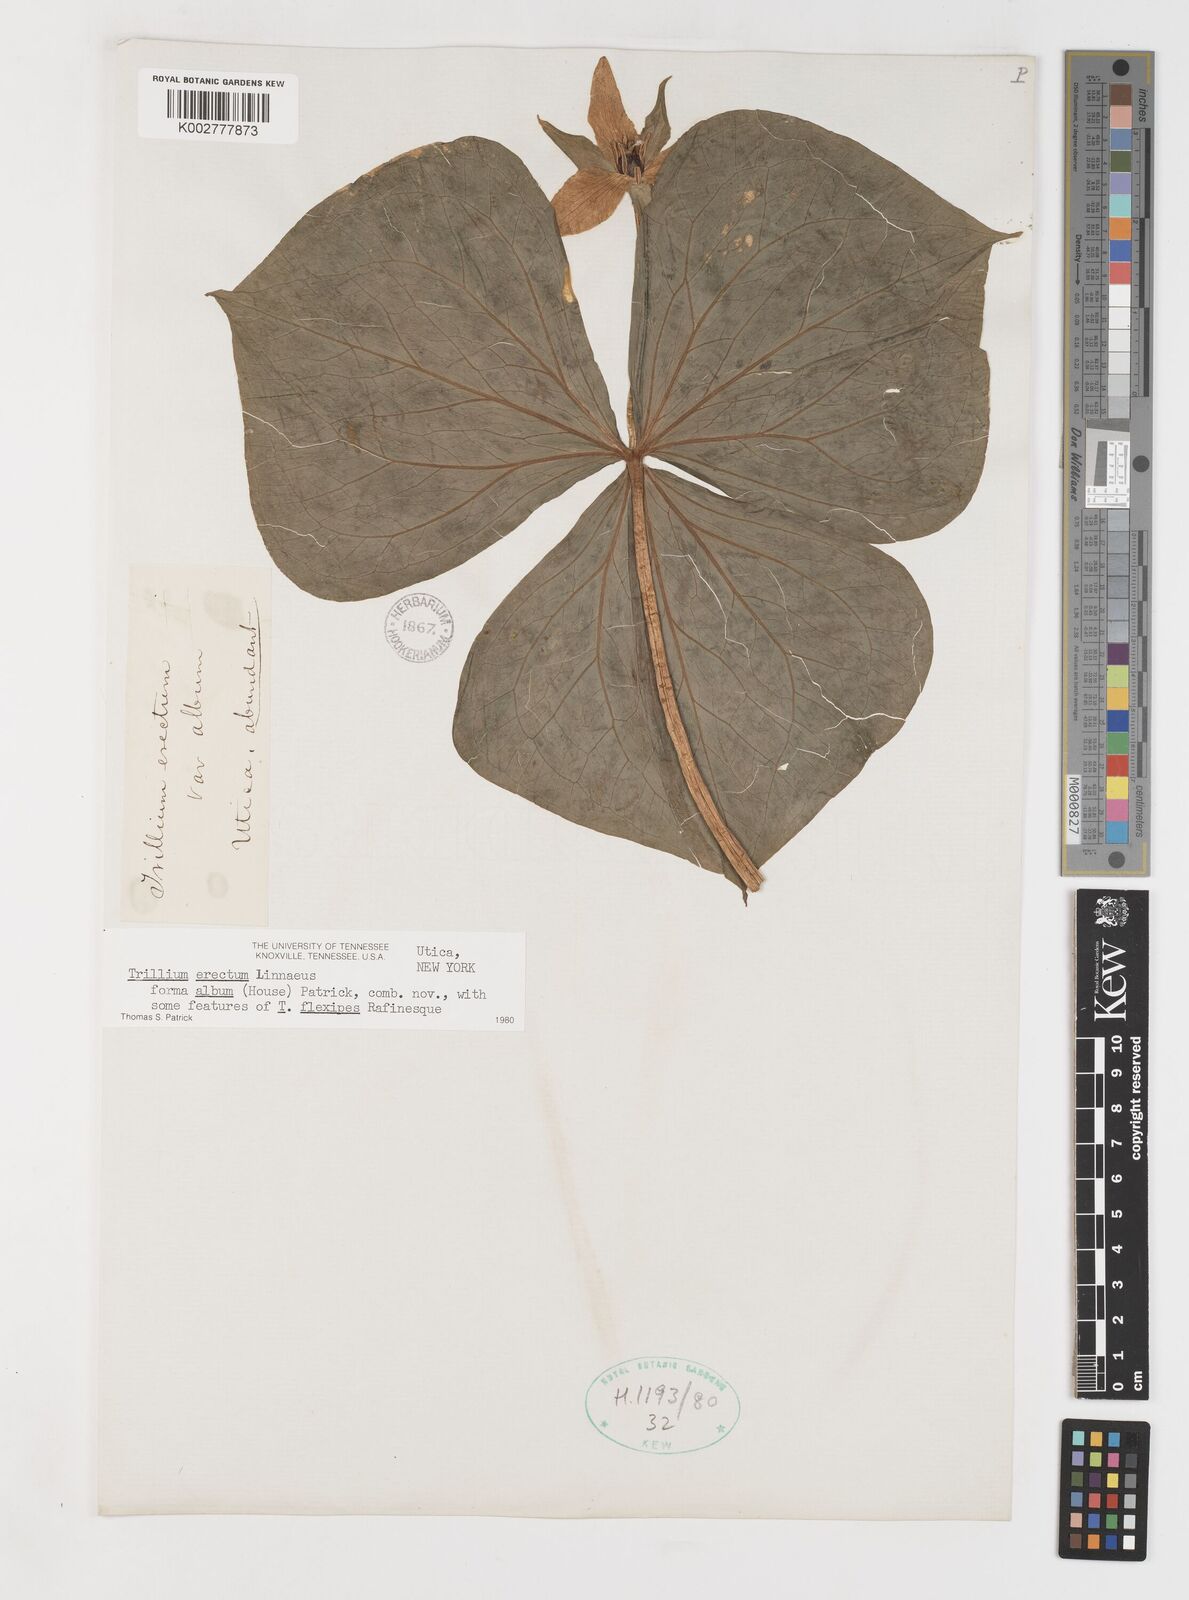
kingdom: Plantae
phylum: Tracheophyta
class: Liliopsida
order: Liliales
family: Melanthiaceae
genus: Trillium
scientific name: Trillium erectum
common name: Purple trillium
